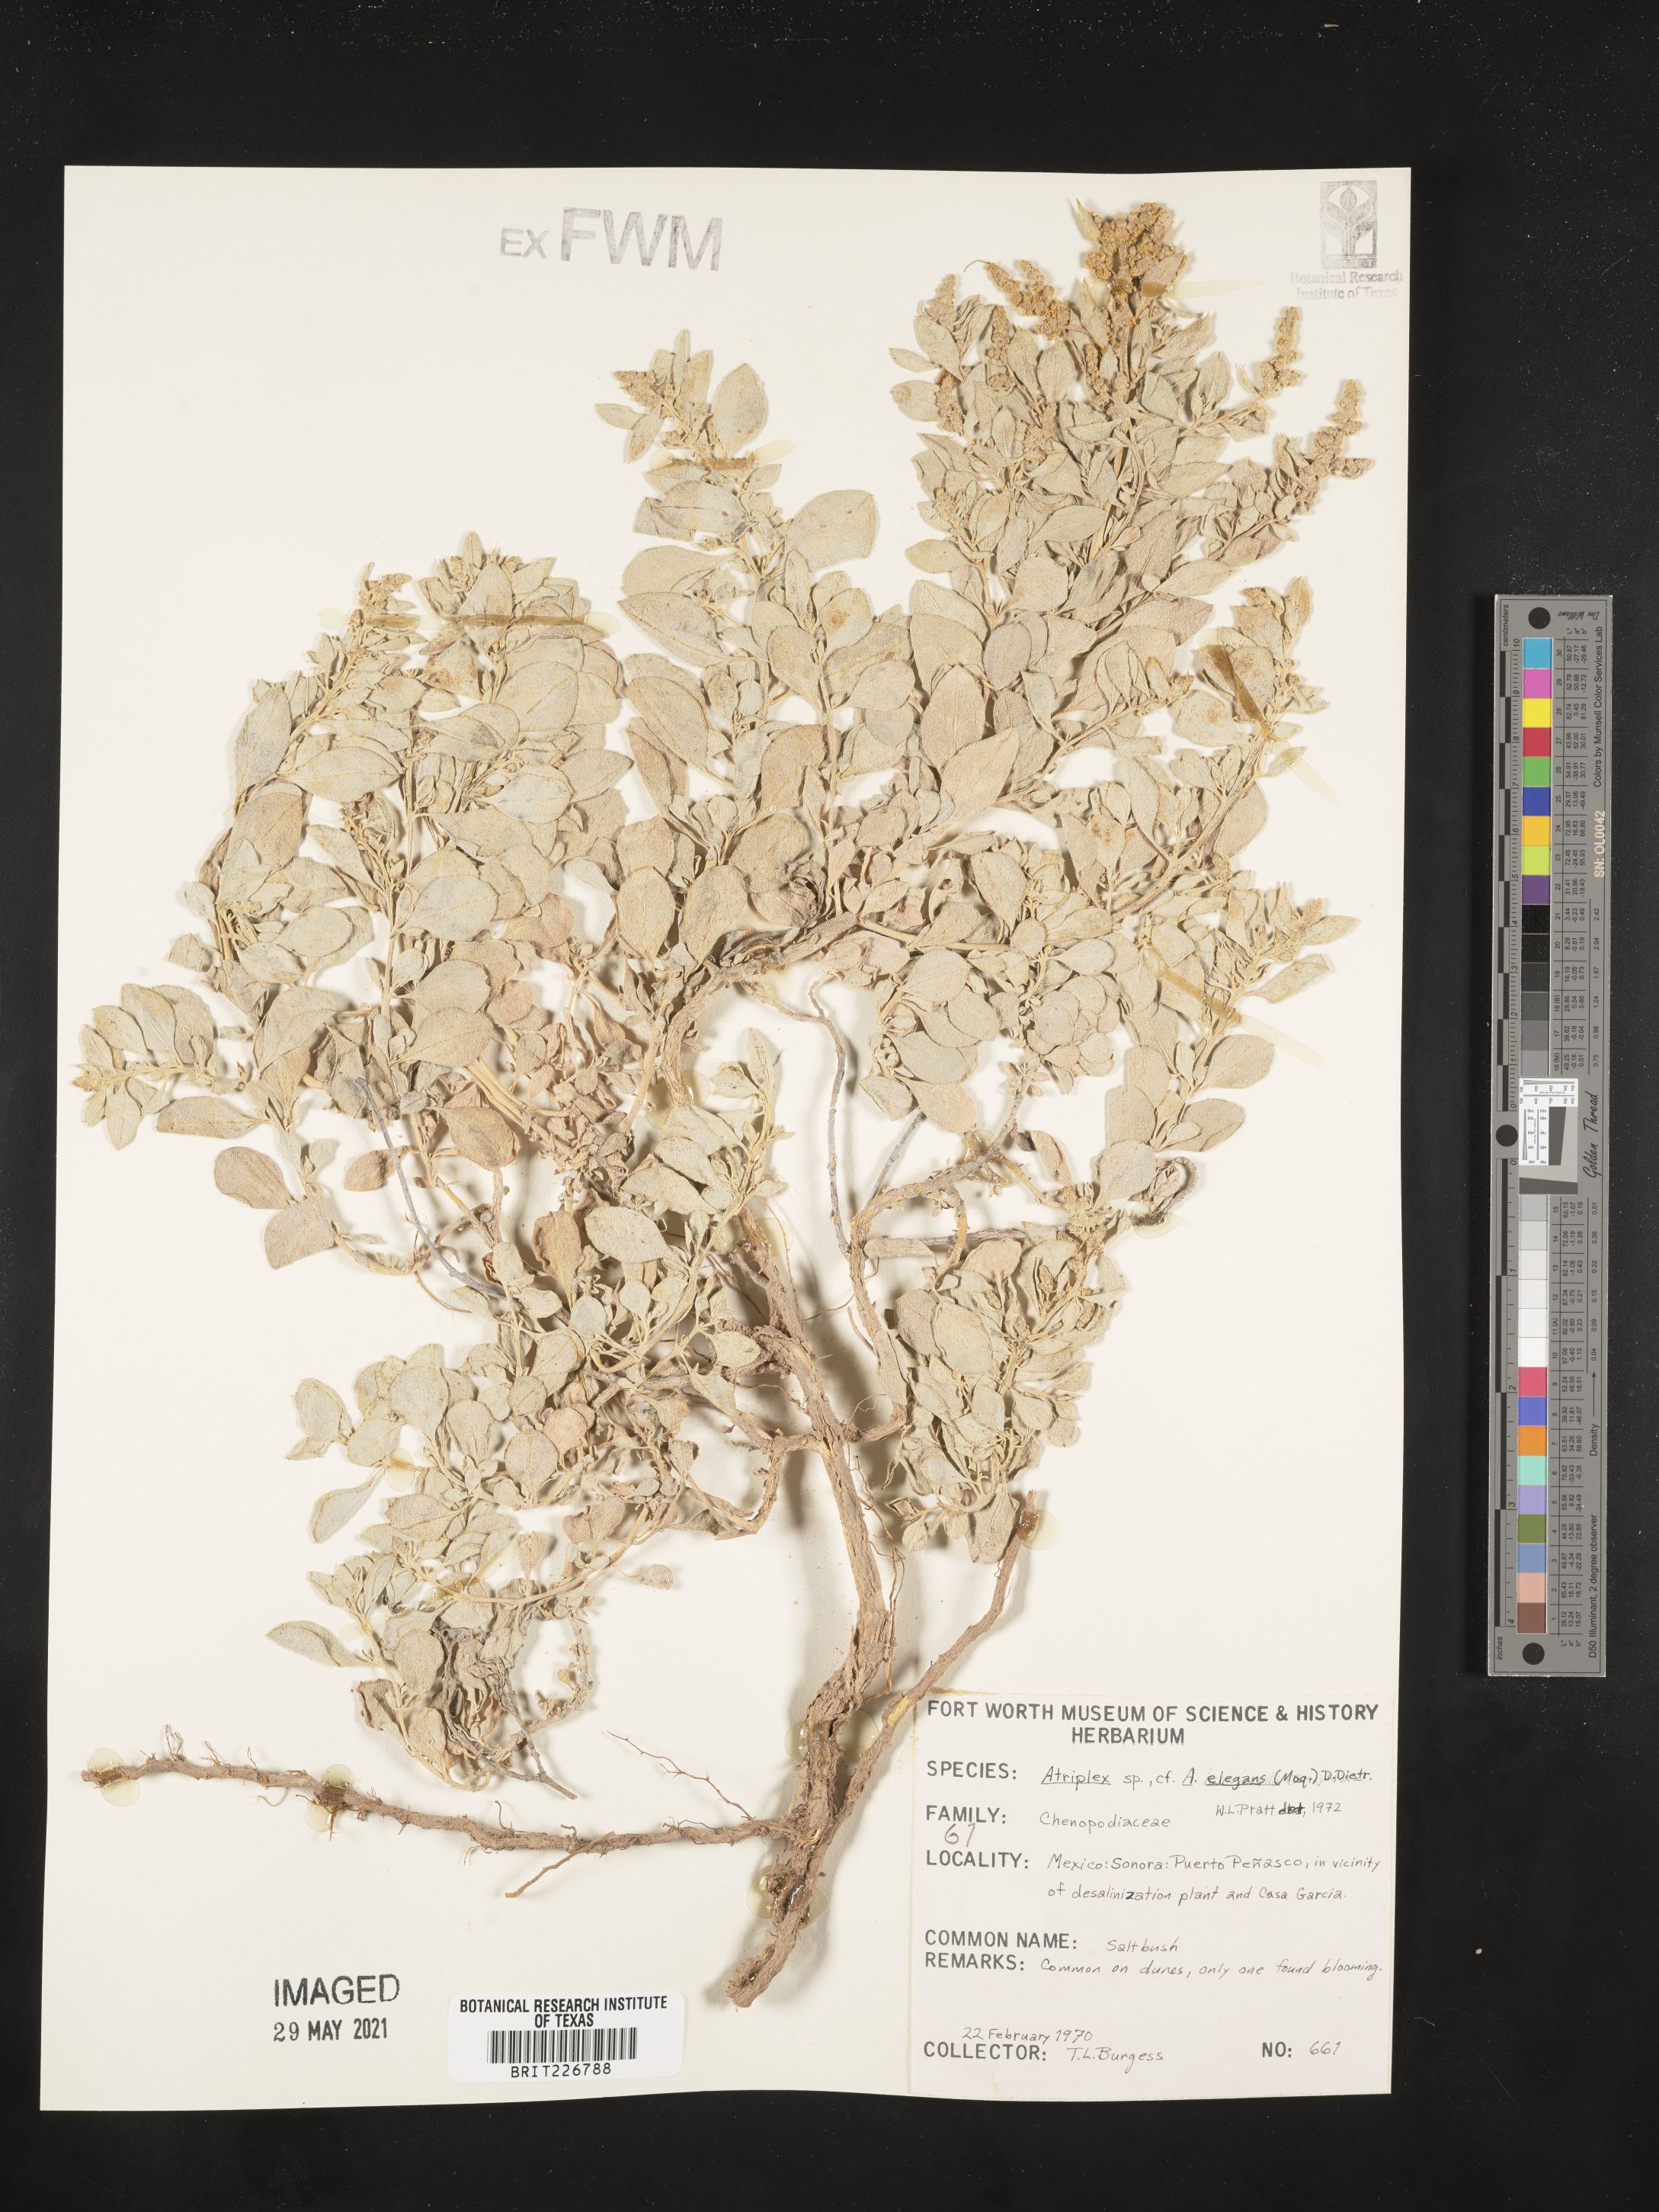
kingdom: Plantae
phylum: Tracheophyta
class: Magnoliopsida
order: Caryophyllales
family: Amaranthaceae
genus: Atriplex
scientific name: Atriplex elegans
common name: Wheelscale orach
